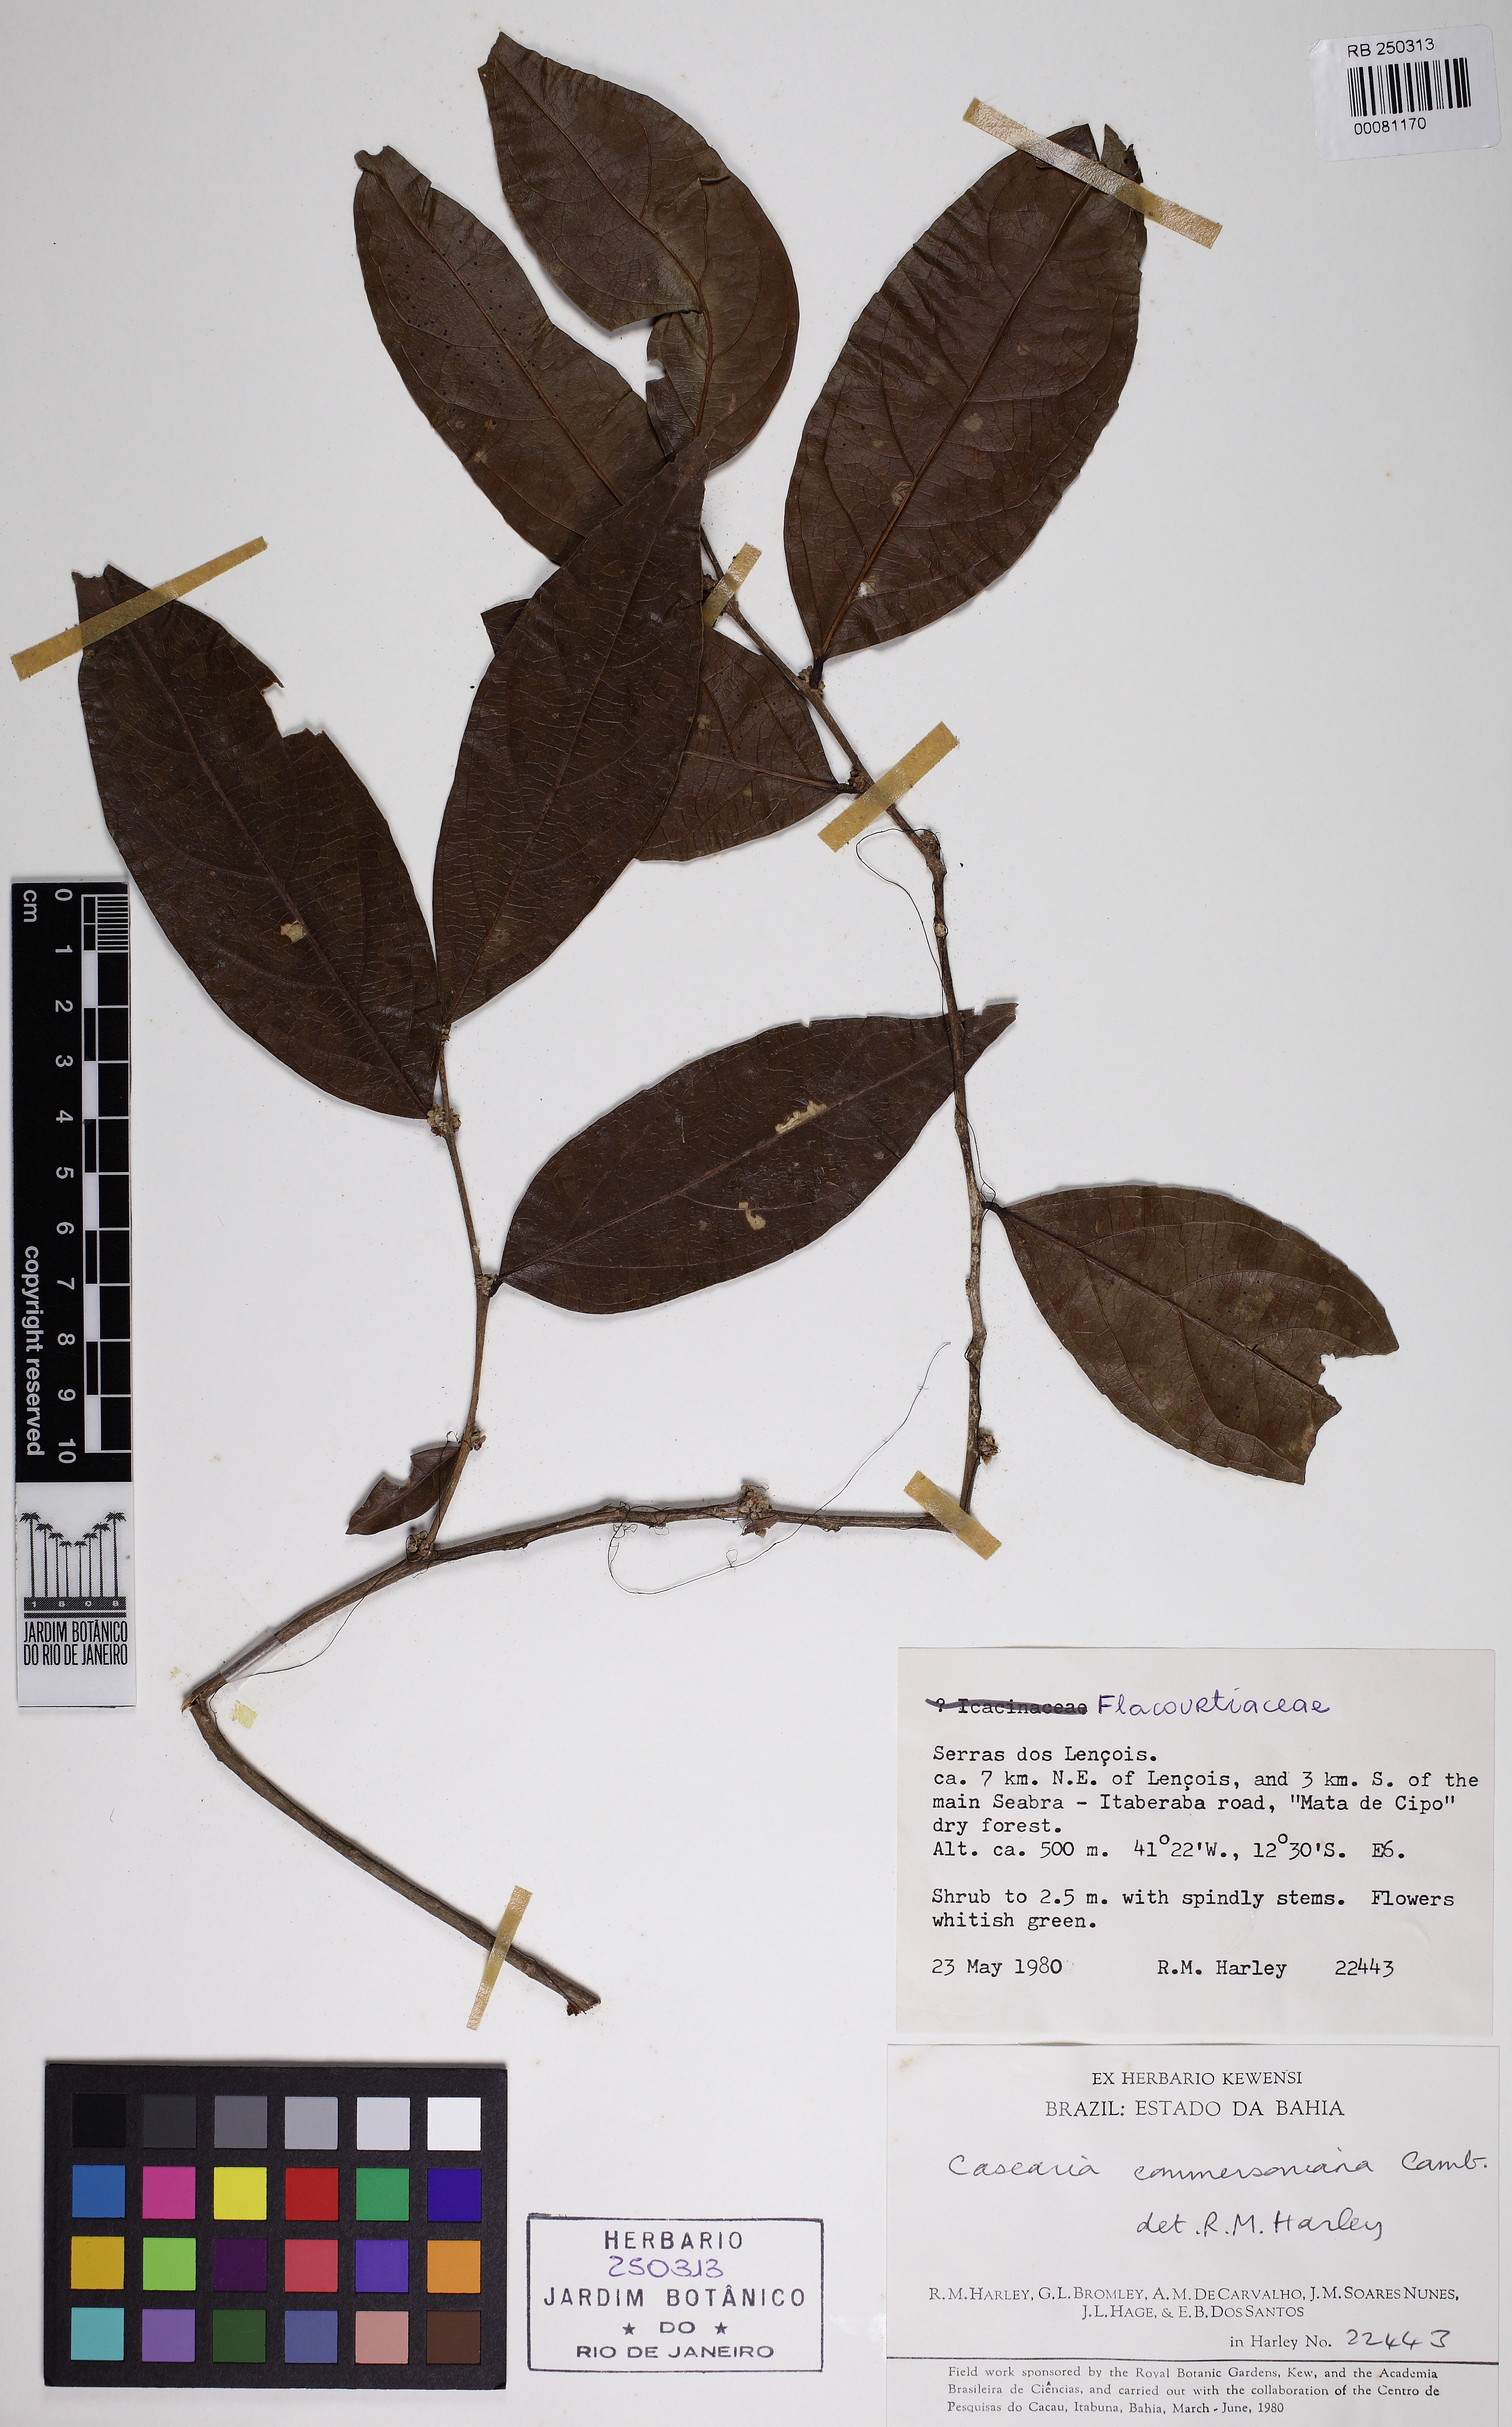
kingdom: Plantae
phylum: Tracheophyta
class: Magnoliopsida
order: Malpighiales
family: Salicaceae
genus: Piparea
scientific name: Piparea dentata
